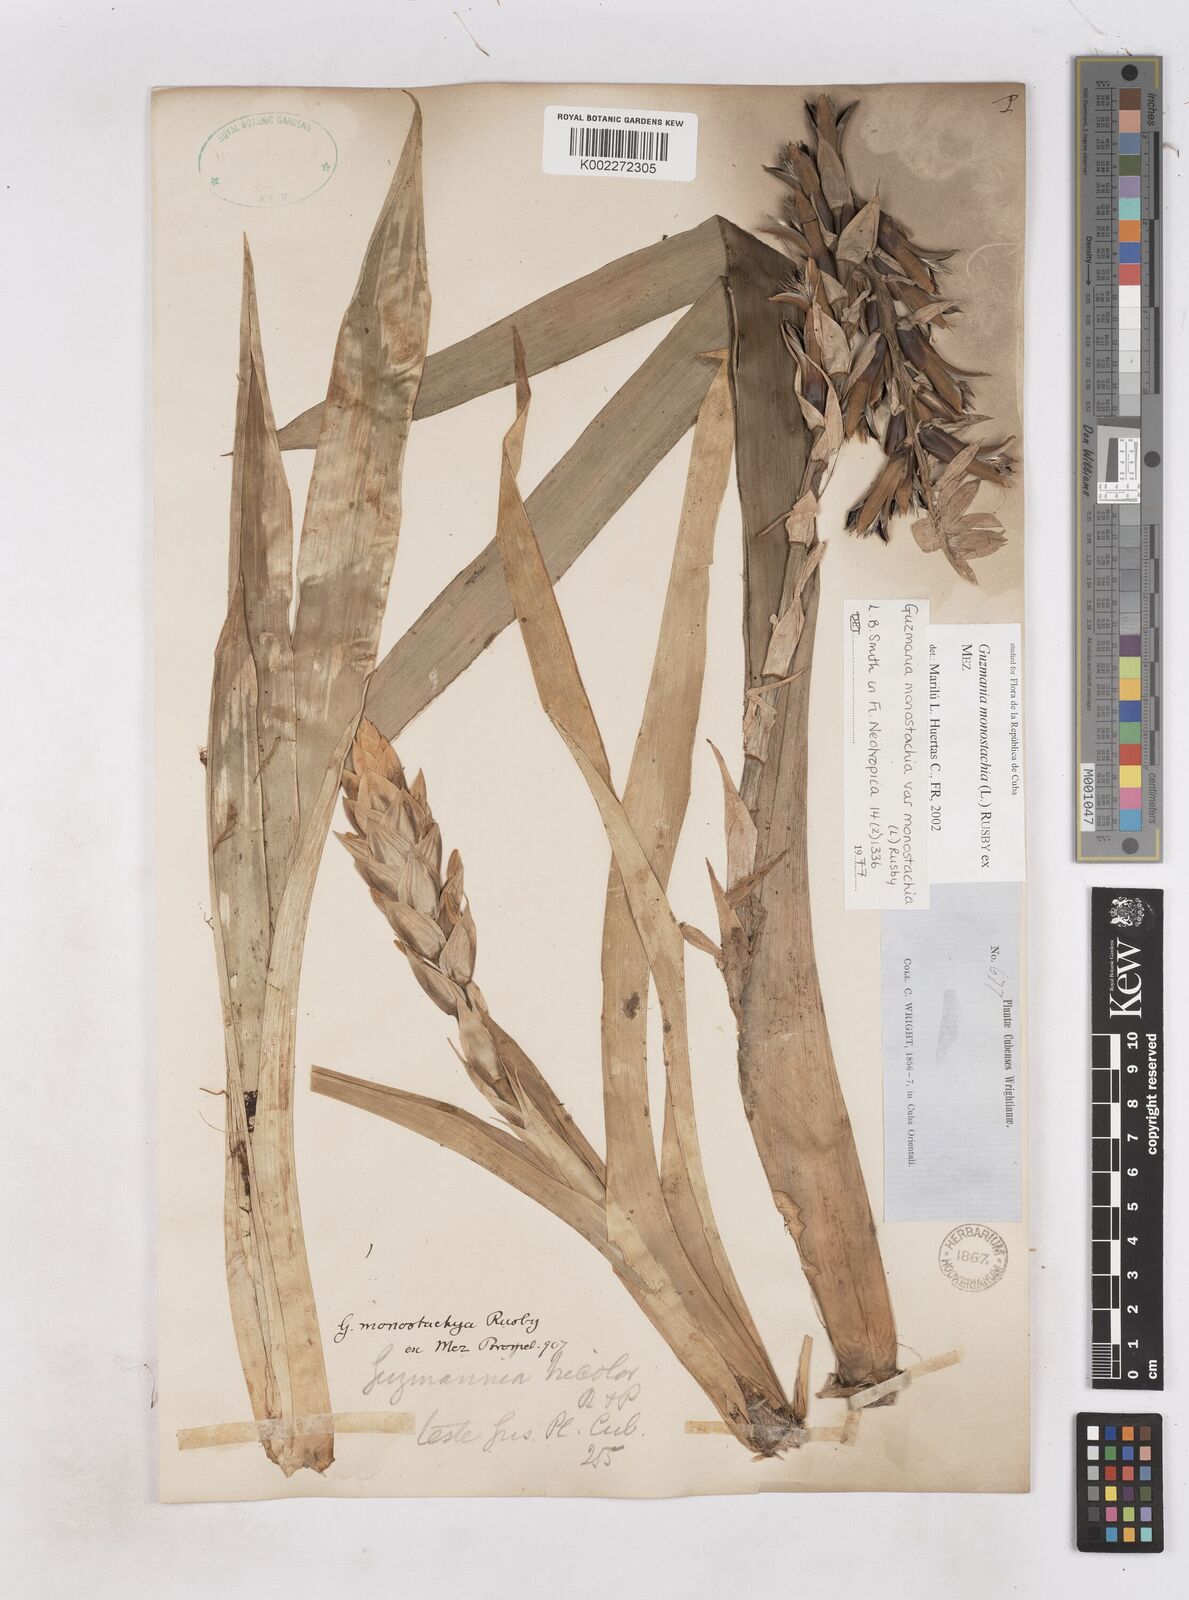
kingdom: Plantae
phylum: Tracheophyta
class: Liliopsida
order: Poales
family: Bromeliaceae
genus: Guzmania
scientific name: Guzmania monostachia
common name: West indian tufted airplant
